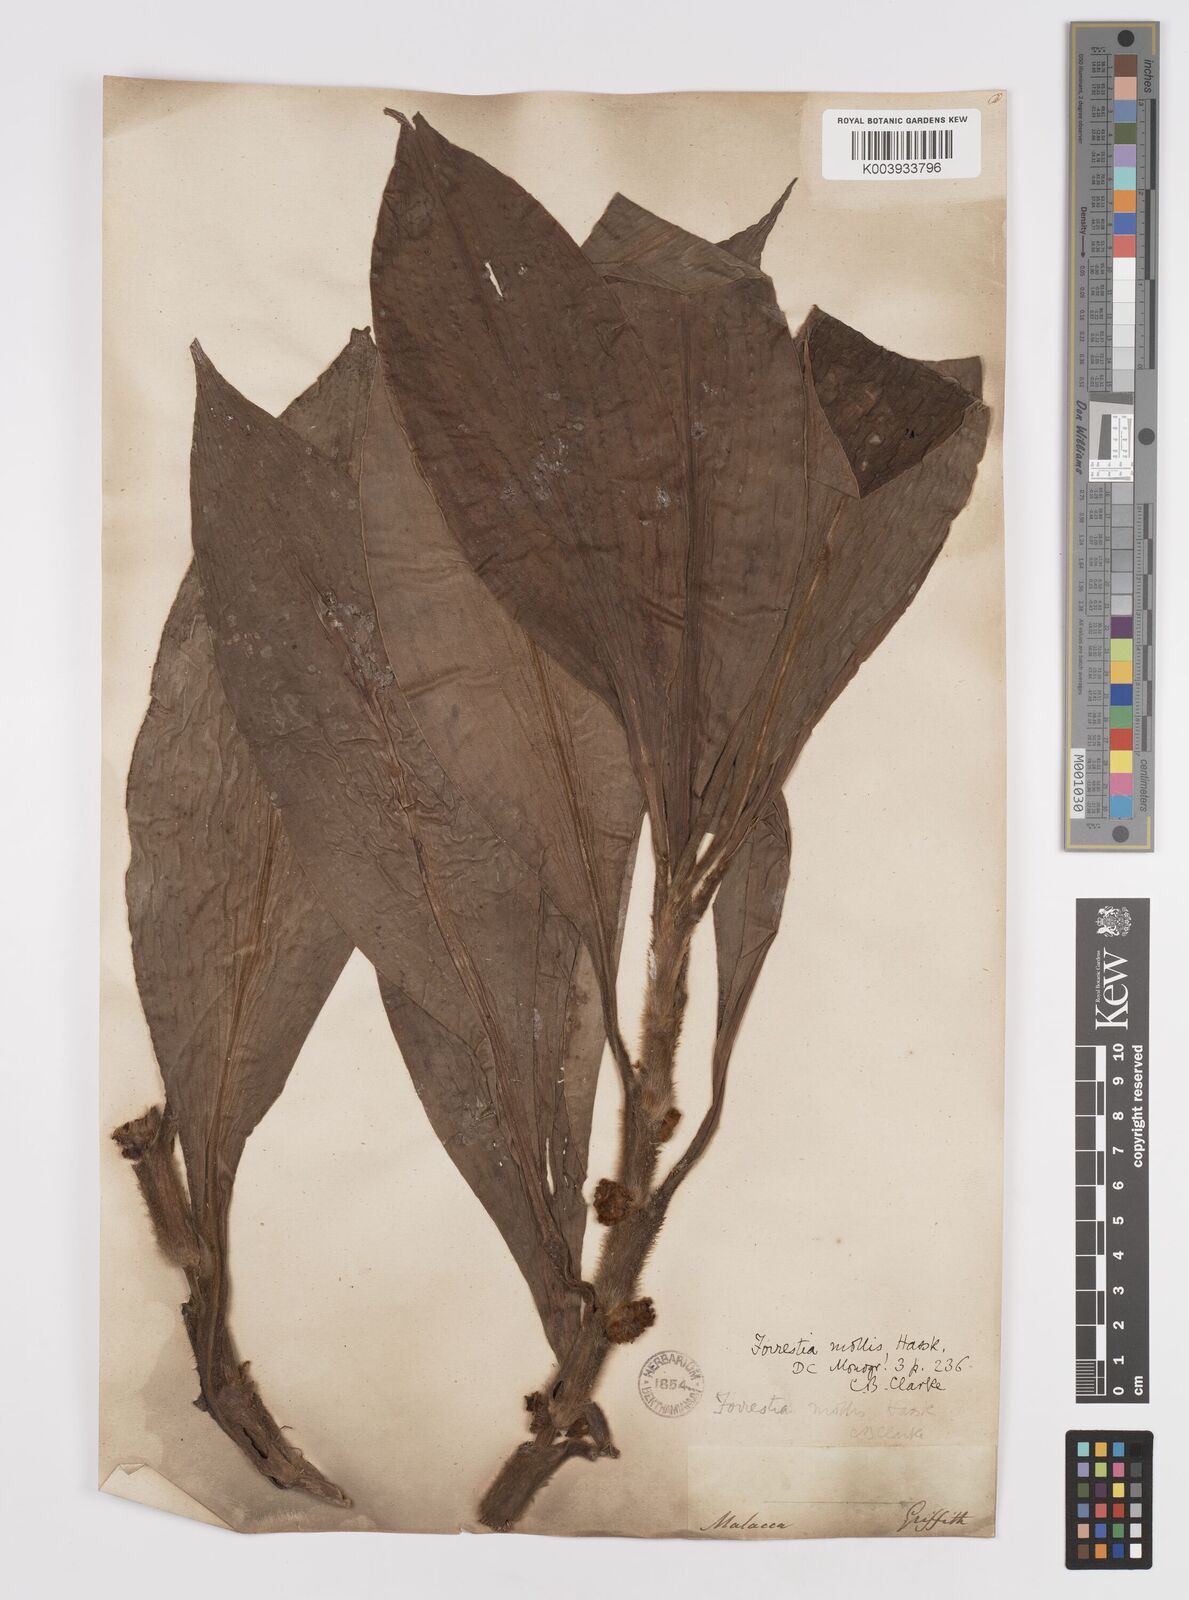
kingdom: Plantae
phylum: Tracheophyta
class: Liliopsida
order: Commelinales
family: Commelinaceae
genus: Amischotolype
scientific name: Amischotolype mollissima
